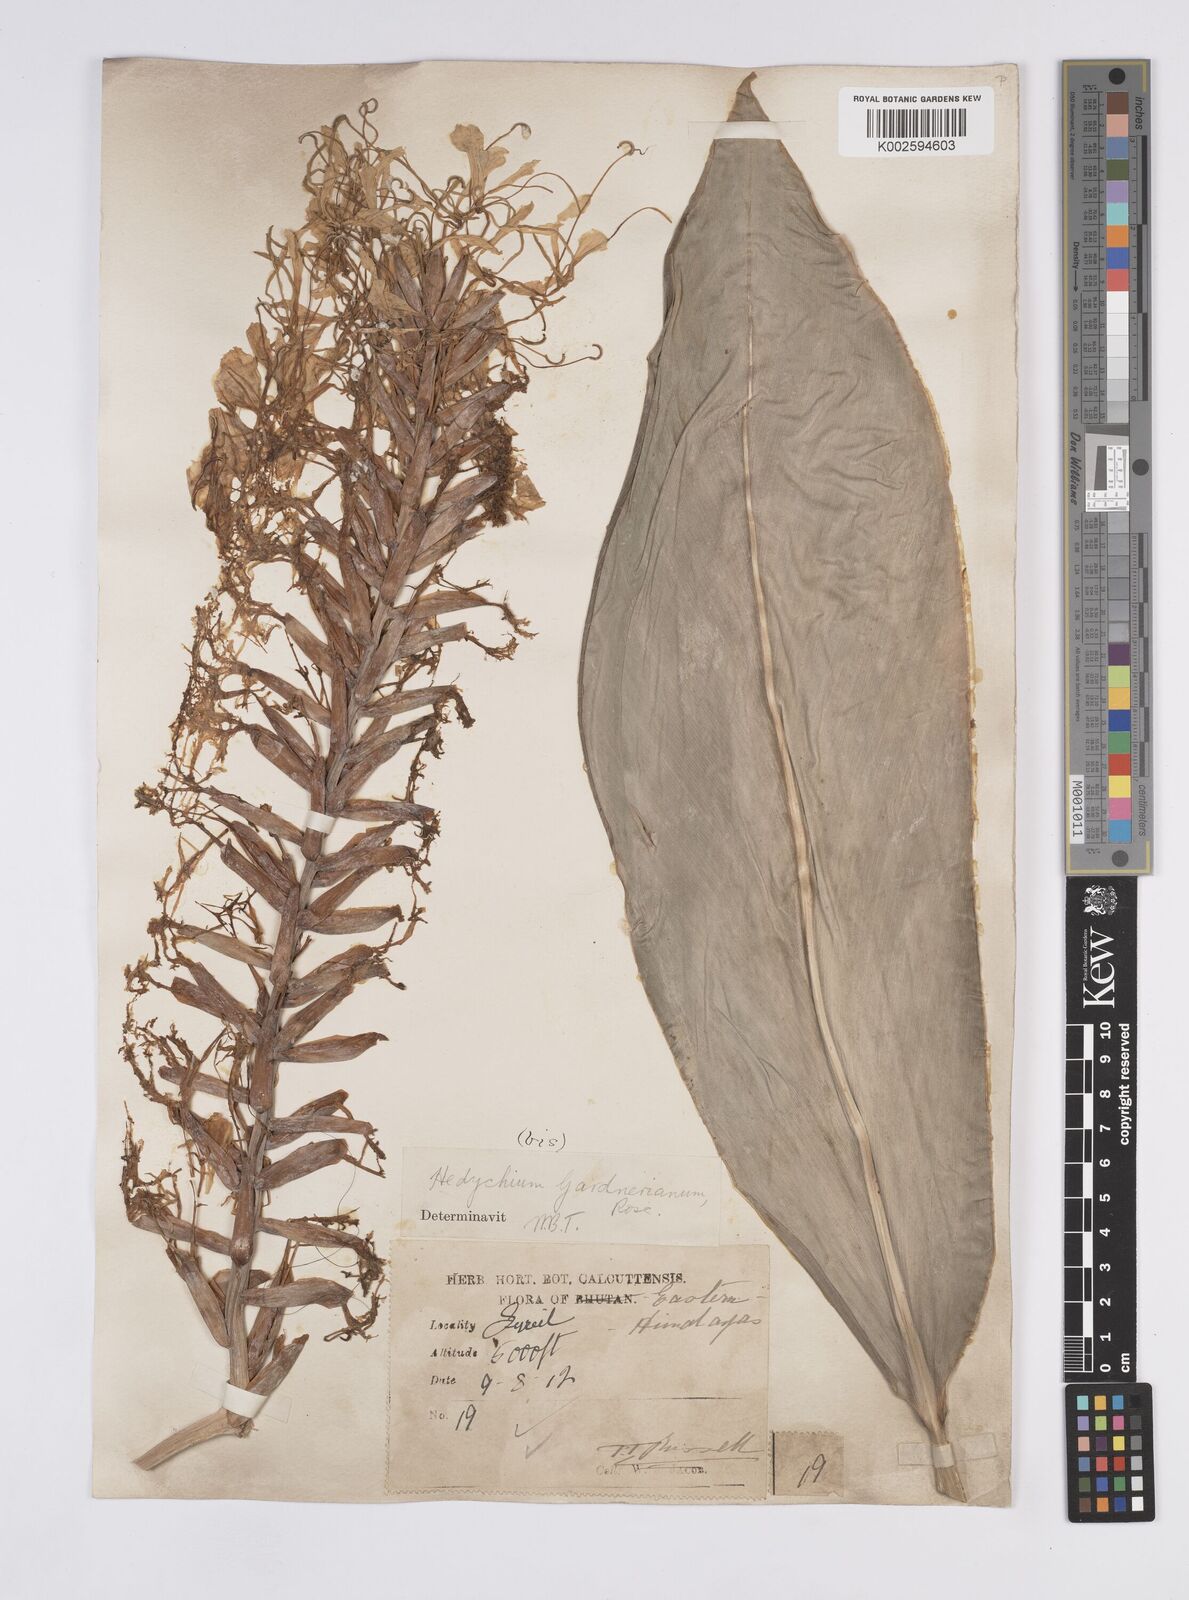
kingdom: Plantae
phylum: Tracheophyta
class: Liliopsida
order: Zingiberales
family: Zingiberaceae
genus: Hedychium
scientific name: Hedychium gardnerianum
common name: Himalayan ginger
